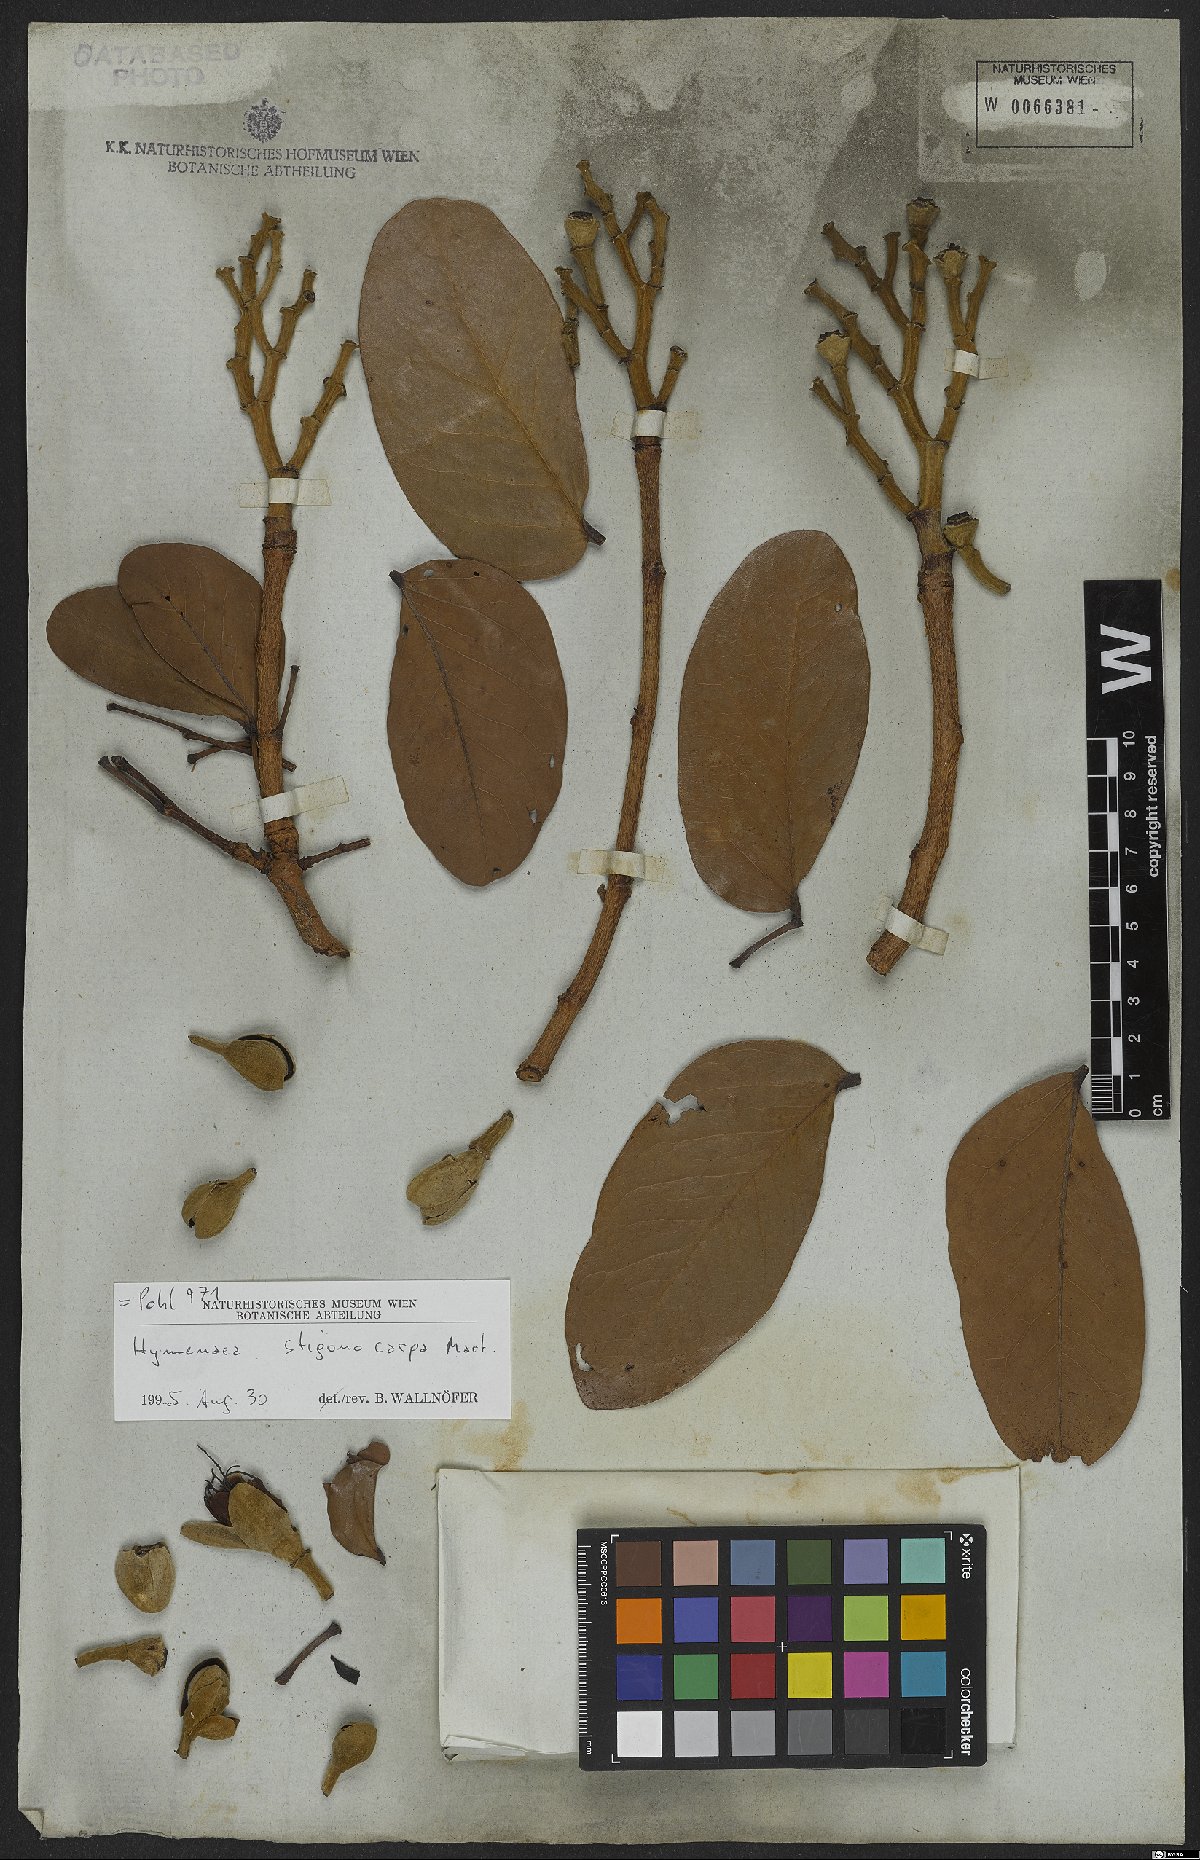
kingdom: Plantae
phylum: Tracheophyta
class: Magnoliopsida
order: Fabales
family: Fabaceae
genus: Hymenaea
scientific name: Hymenaea stigonocarpa
